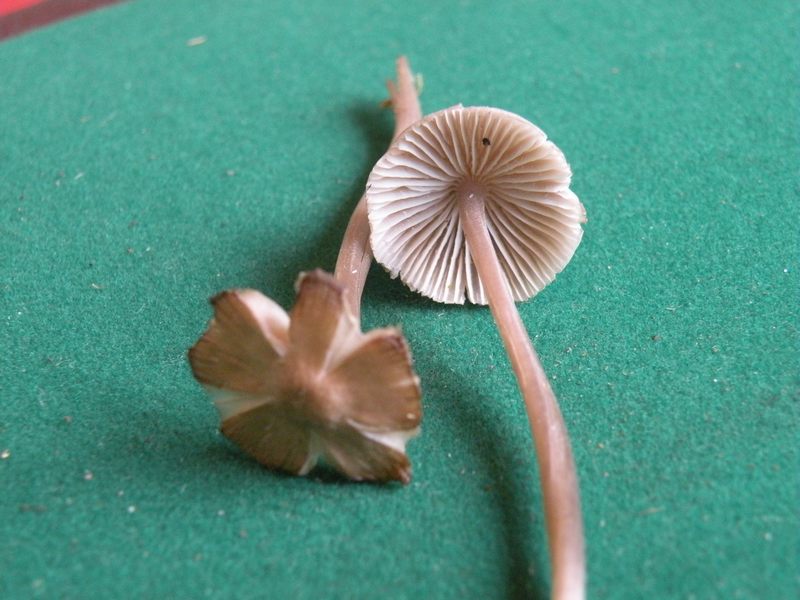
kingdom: Fungi
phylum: Basidiomycota
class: Agaricomycetes
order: Agaricales
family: Mycenaceae
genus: Mycena
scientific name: Mycena abramsii
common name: sommer-huesvamp
